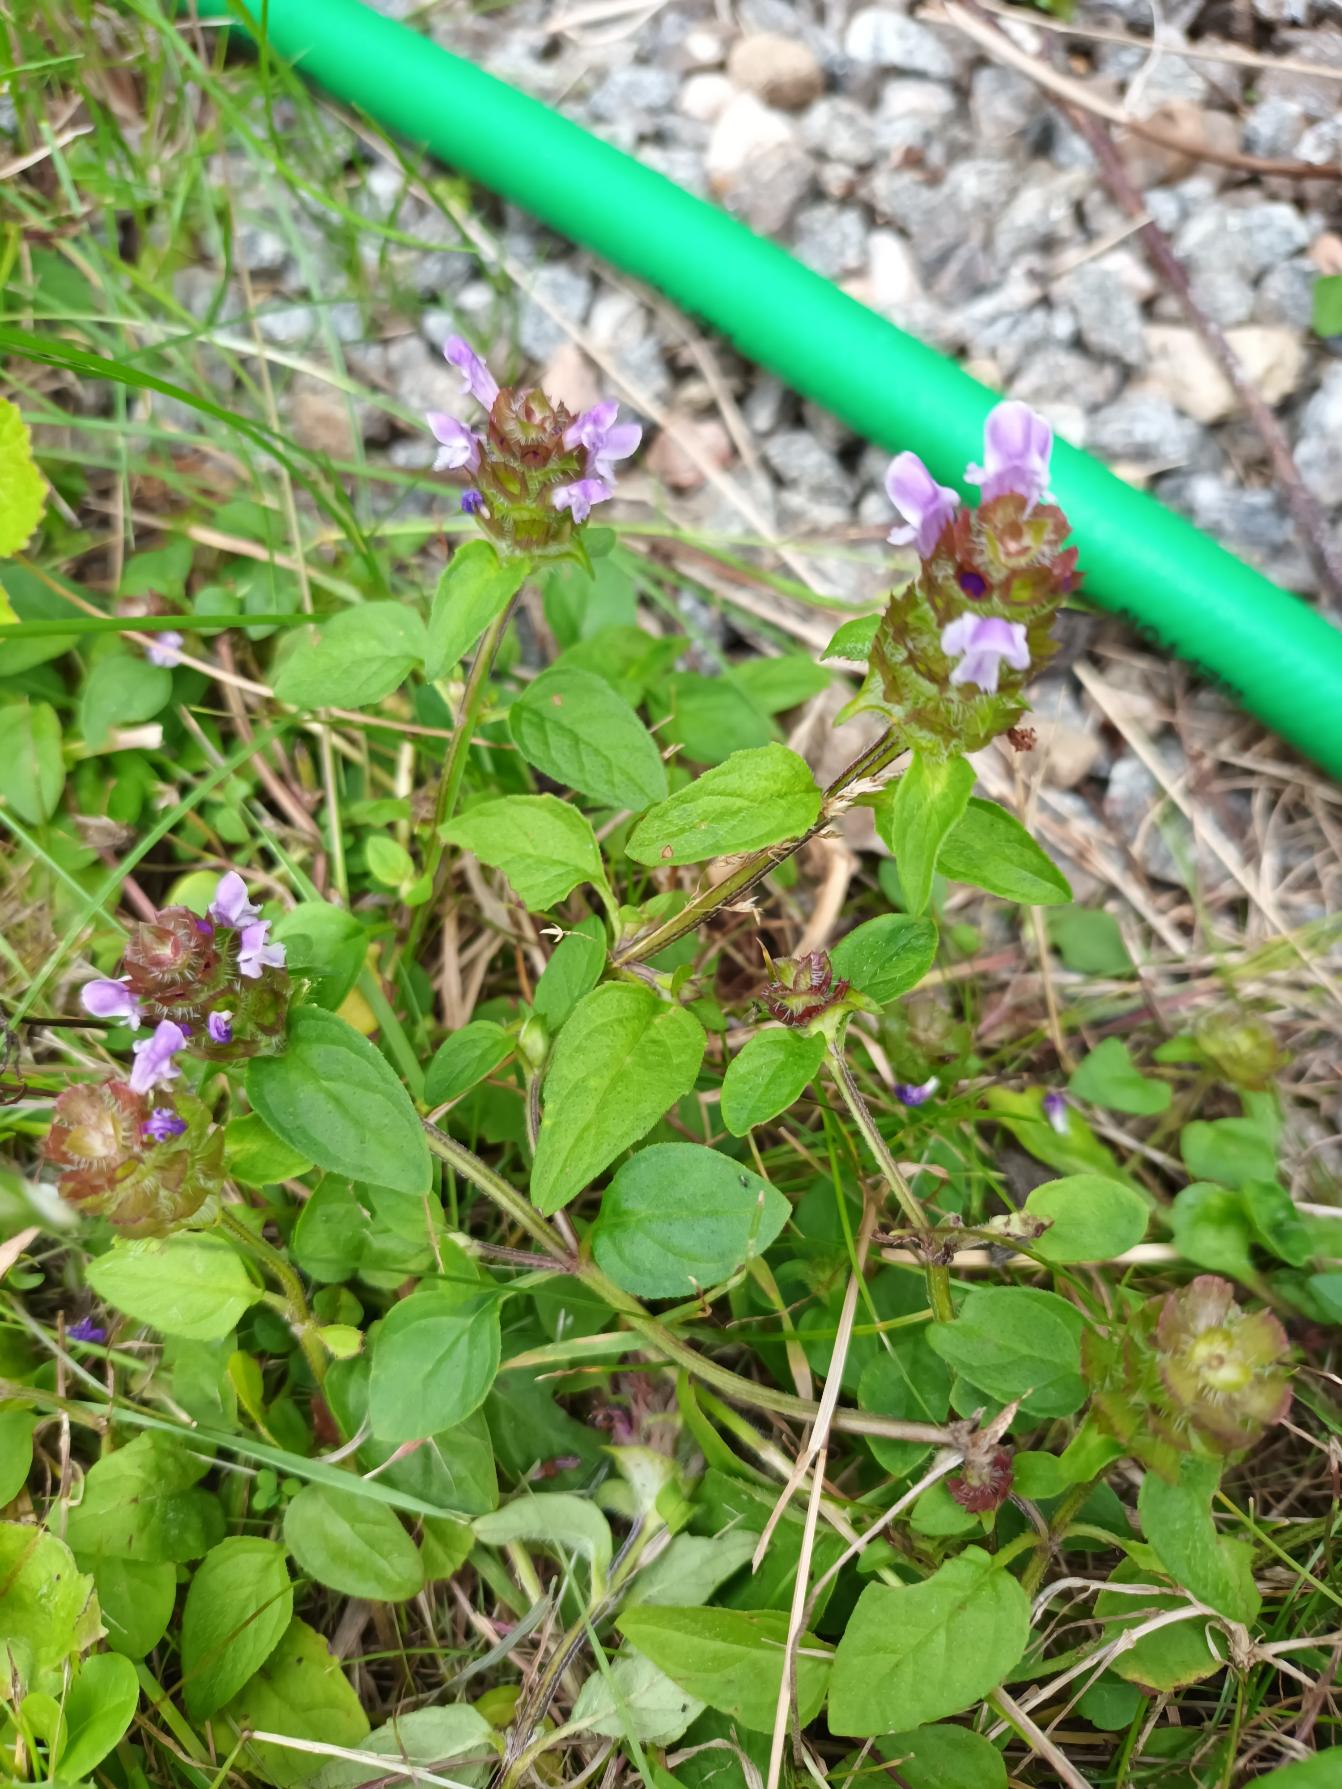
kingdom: Plantae
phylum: Tracheophyta
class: Magnoliopsida
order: Lamiales
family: Lamiaceae
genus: Prunella
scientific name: Prunella vulgaris
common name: Almindelig brunelle
